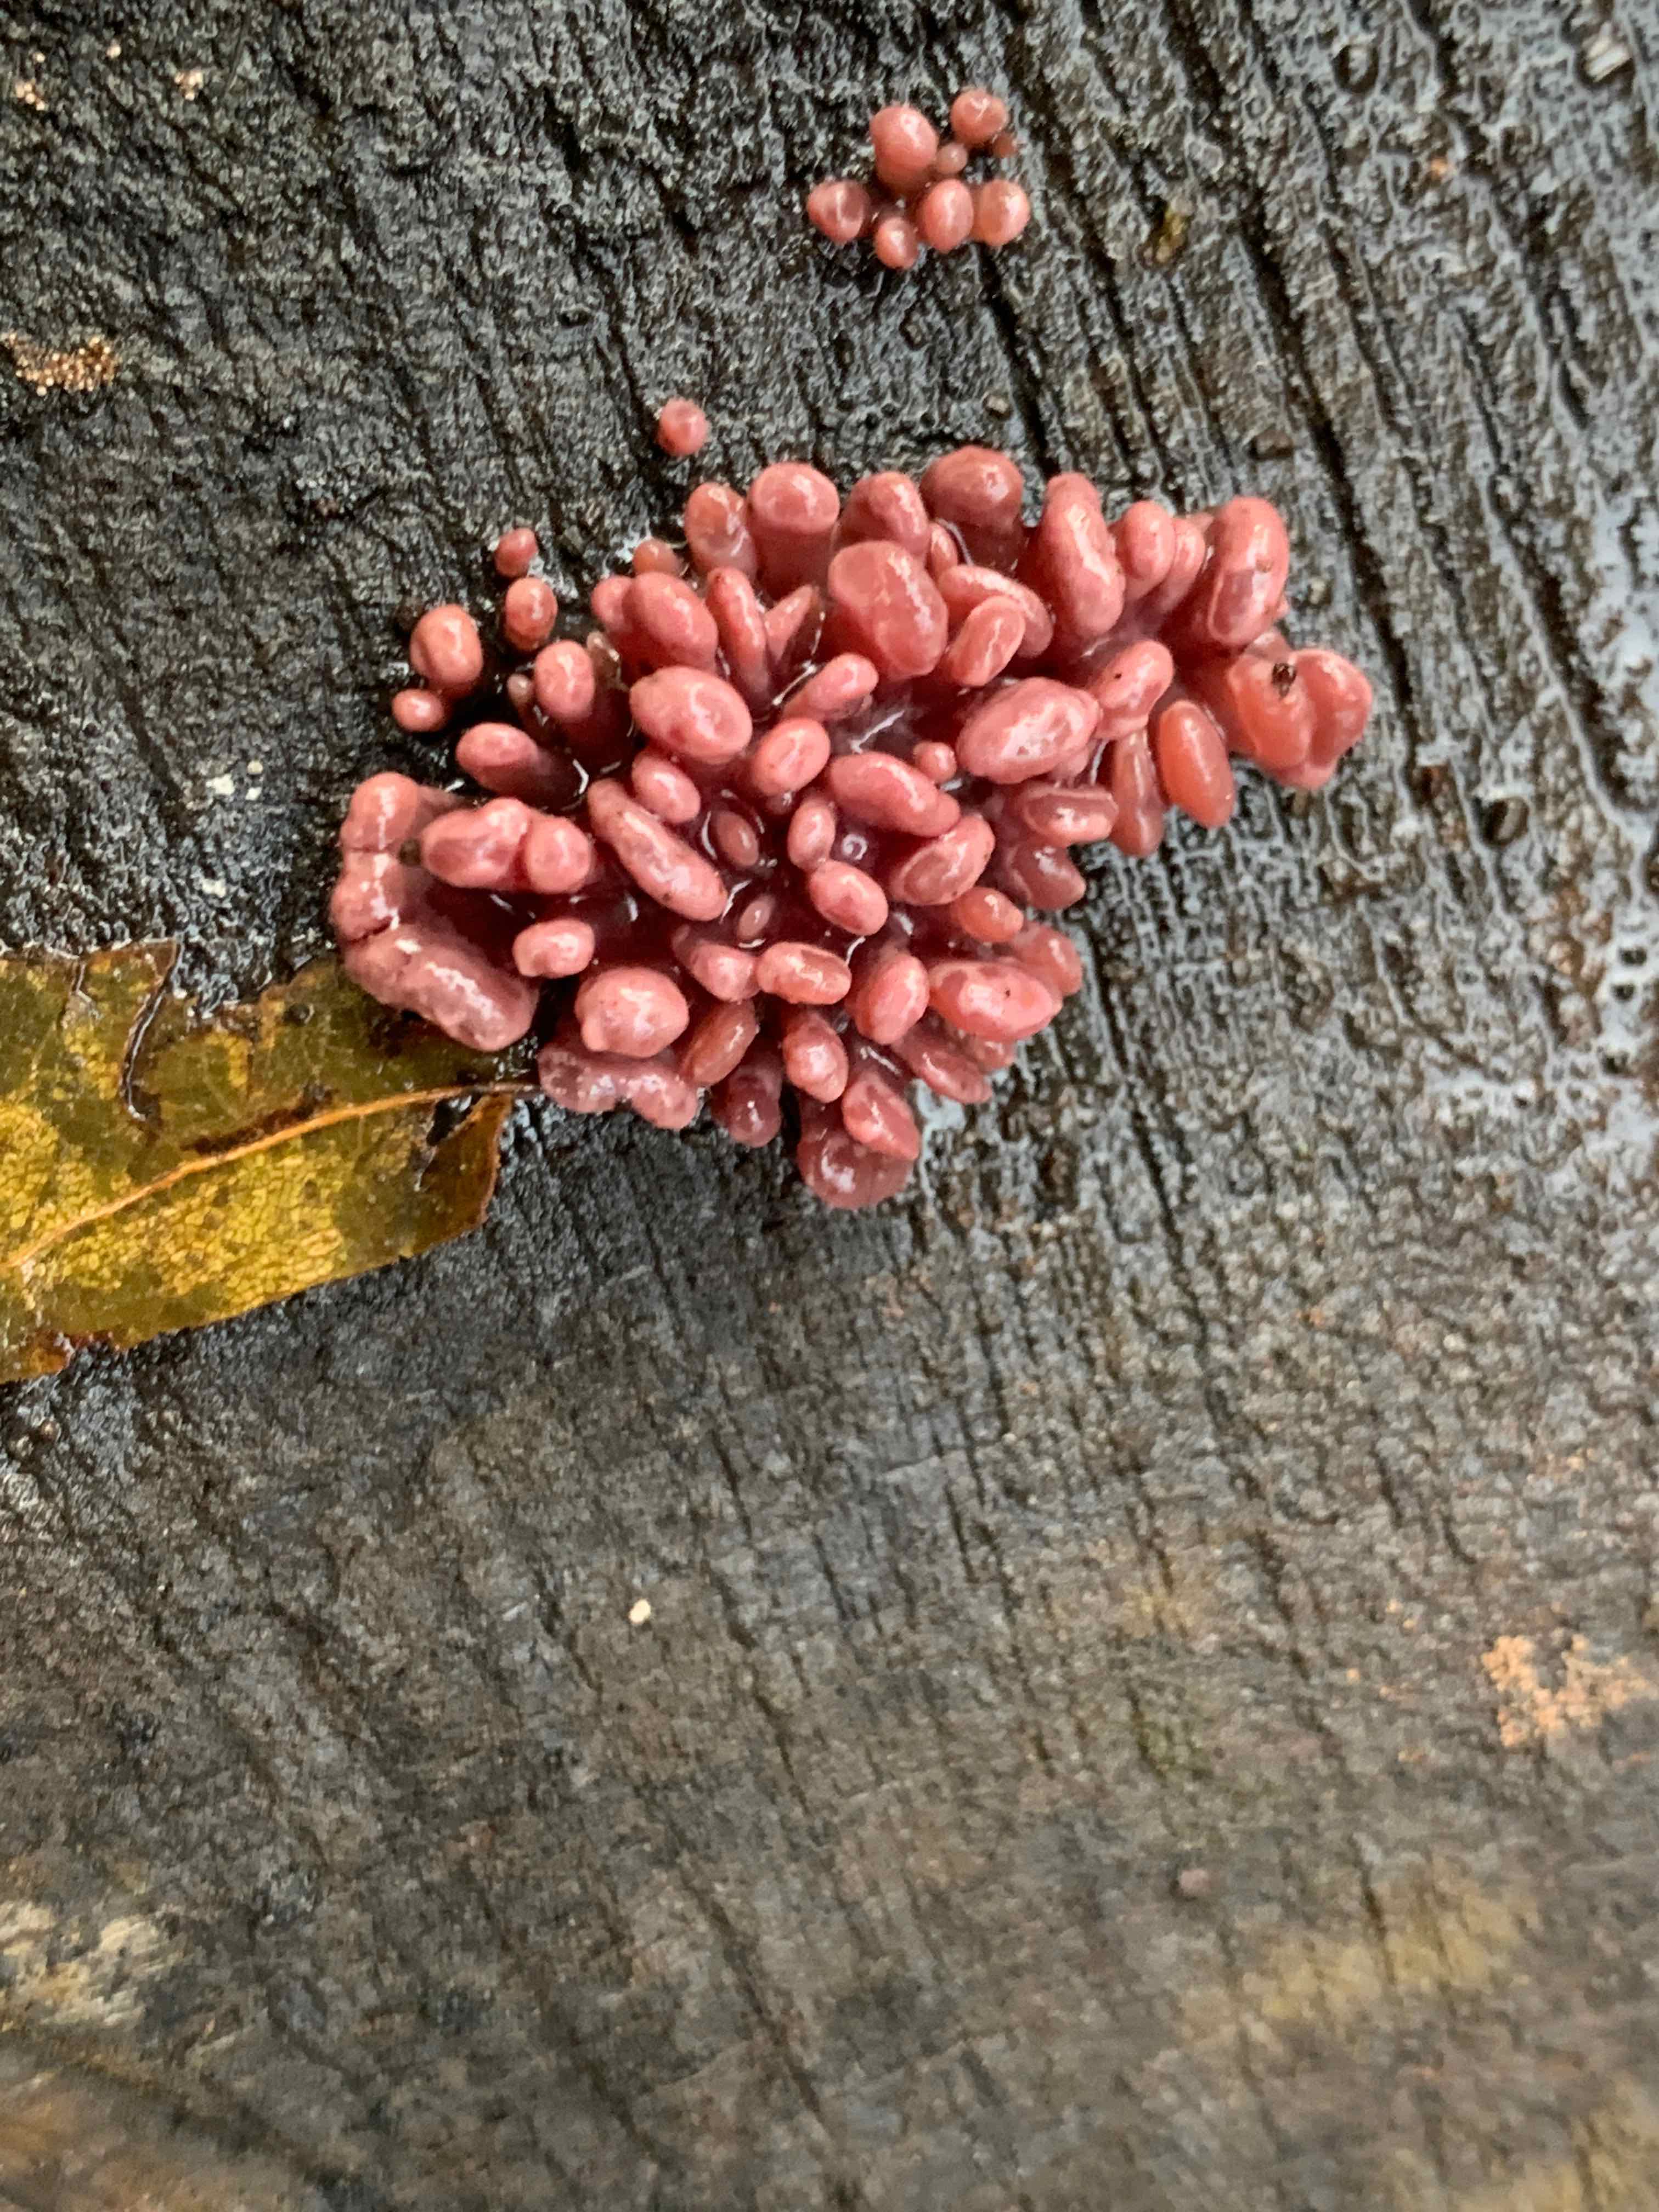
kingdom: Fungi
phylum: Ascomycota
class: Leotiomycetes
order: Helotiales
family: Gelatinodiscaceae
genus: Ascocoryne
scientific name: Ascocoryne sarcoides
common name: rødlilla sejskive
